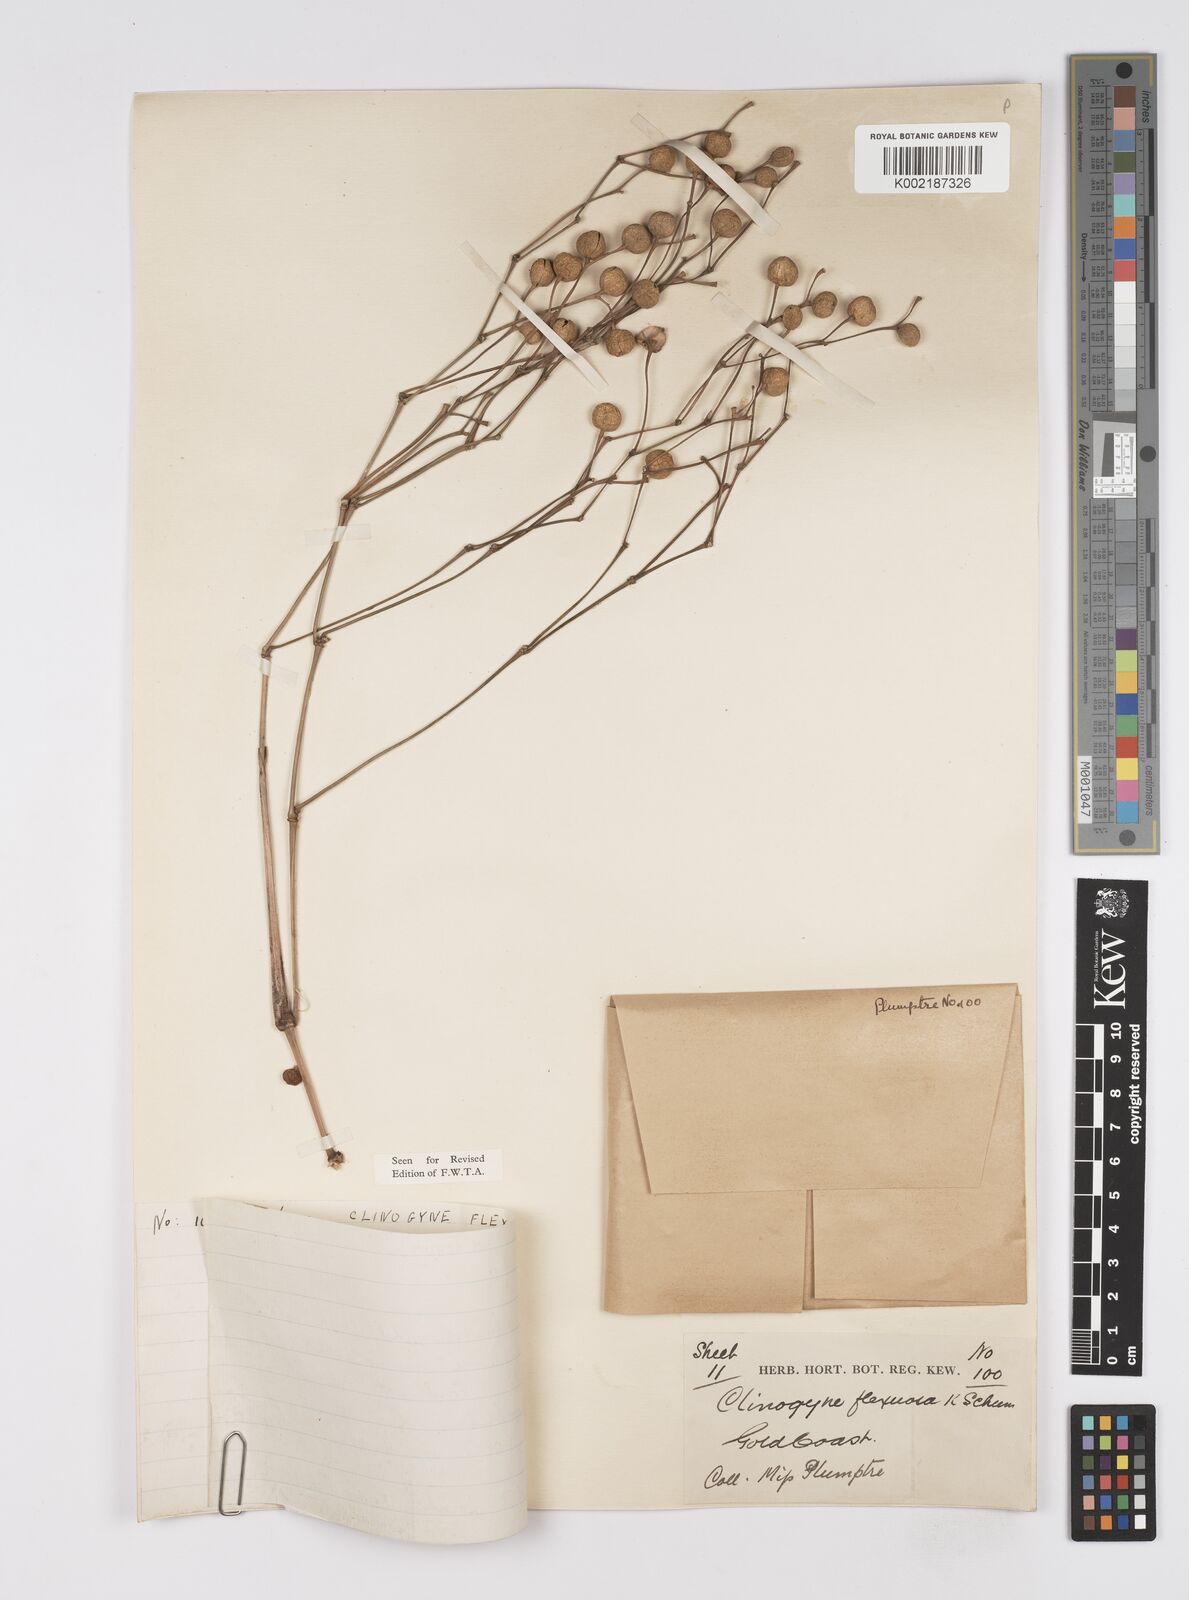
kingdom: Plantae
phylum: Tracheophyta
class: Liliopsida
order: Zingiberales
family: Marantaceae
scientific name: Marantaceae
